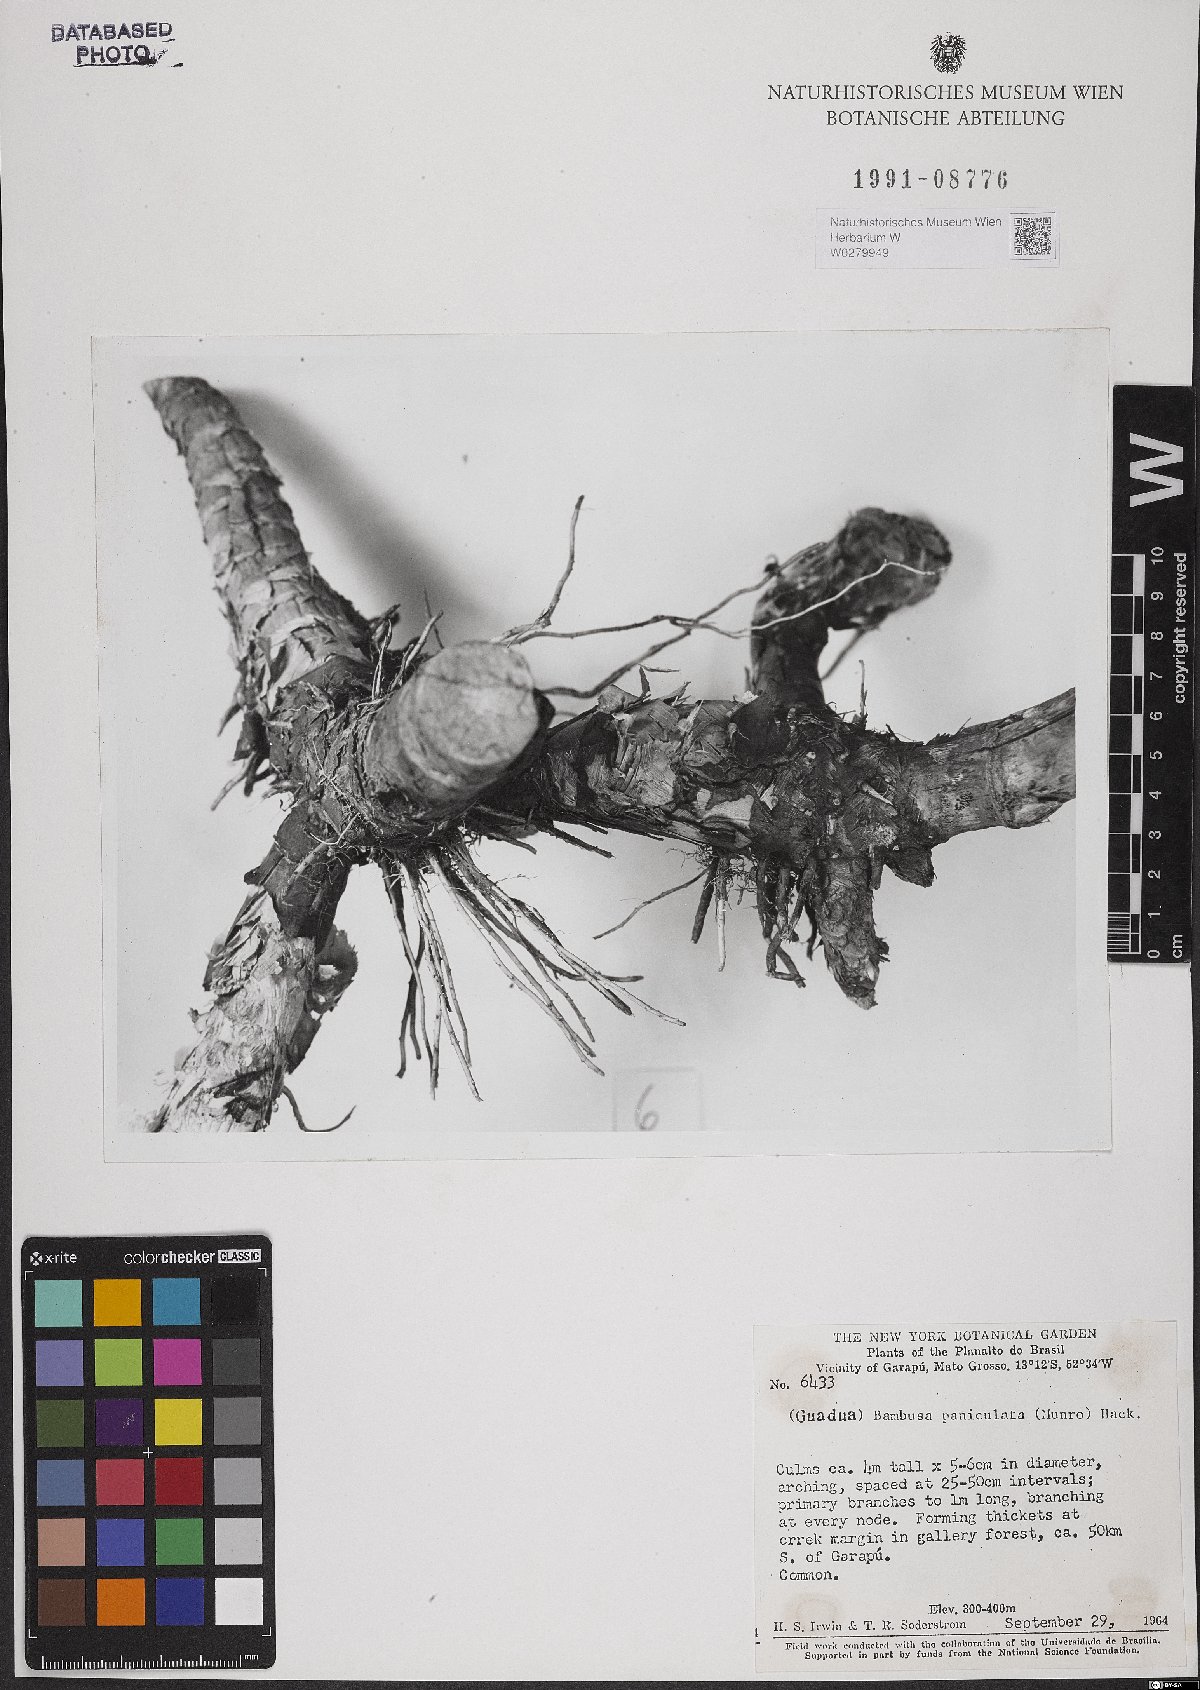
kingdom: Plantae
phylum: Tracheophyta
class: Liliopsida
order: Poales
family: Poaceae
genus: Guadua
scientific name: Guadua paniculata
